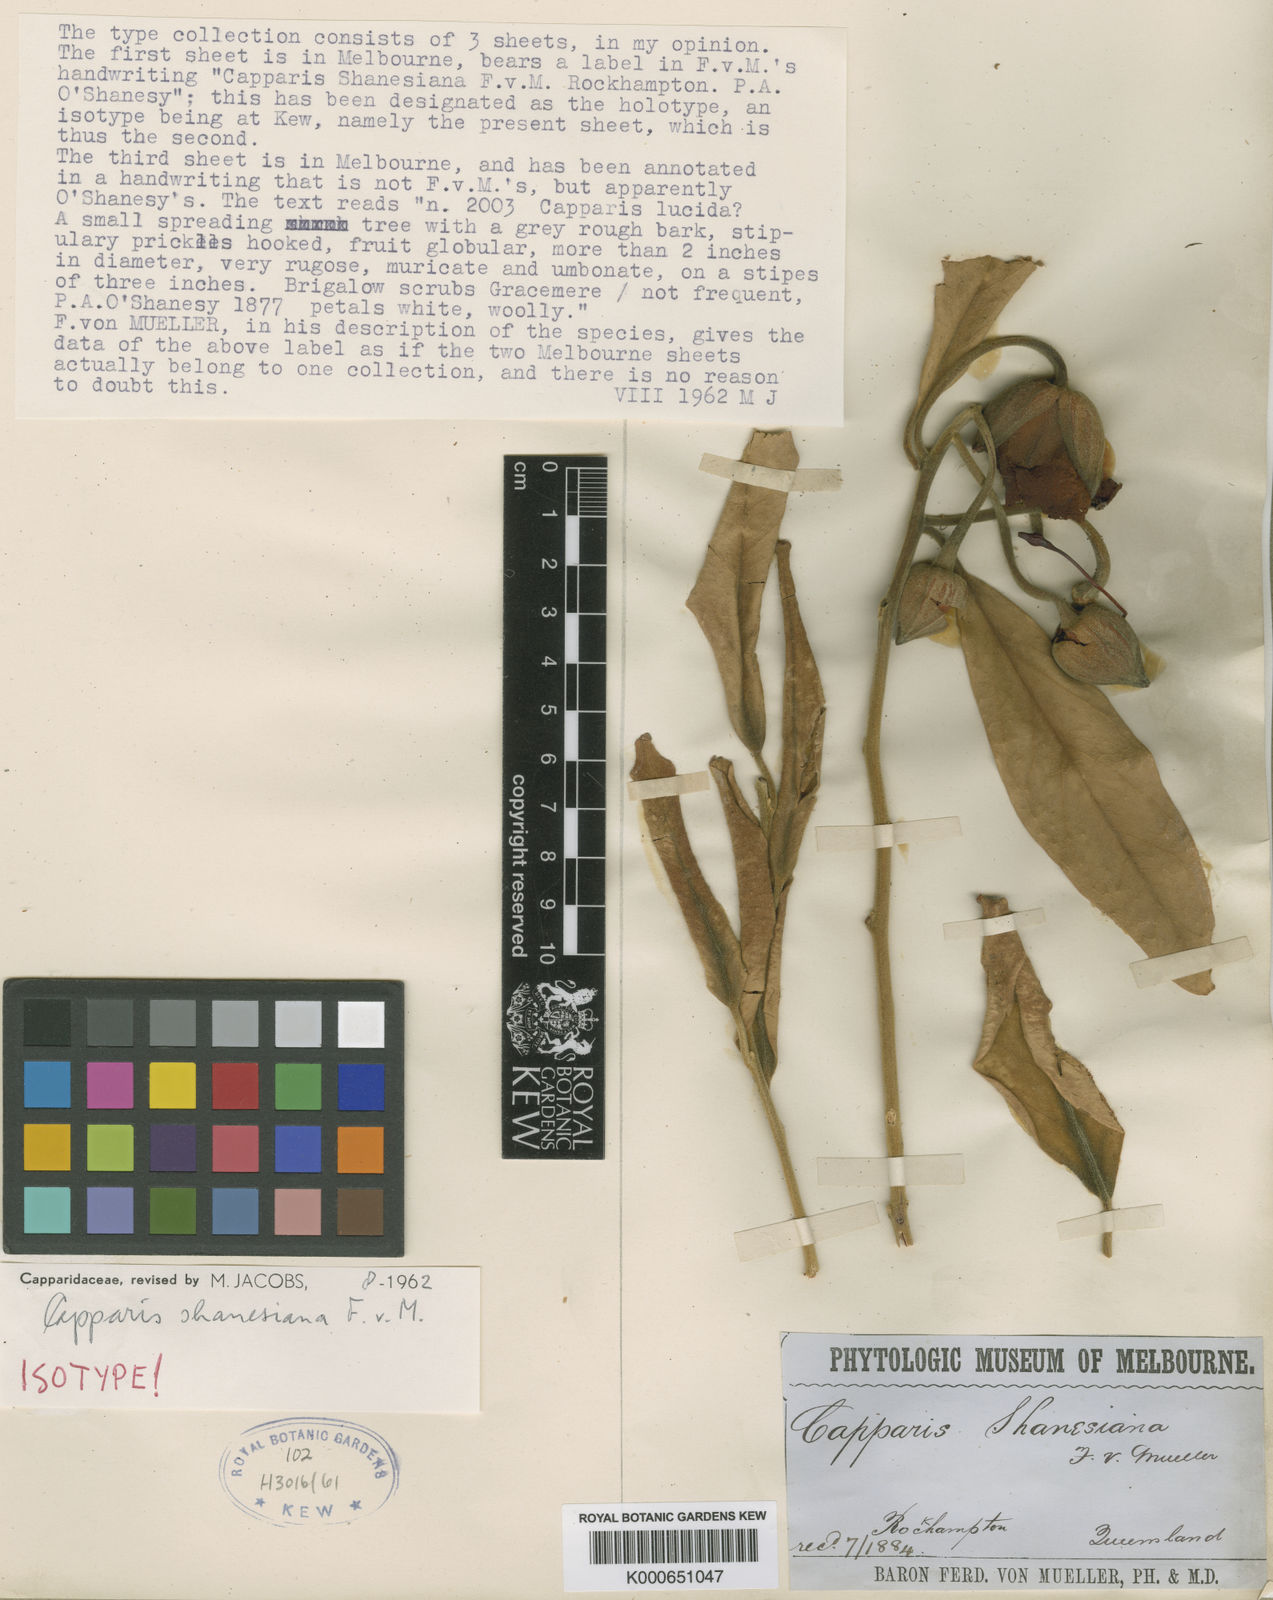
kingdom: Plantae
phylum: Tracheophyta
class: Magnoliopsida
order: Brassicales
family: Capparaceae
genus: Capparis
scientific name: Capparis shanesiana
